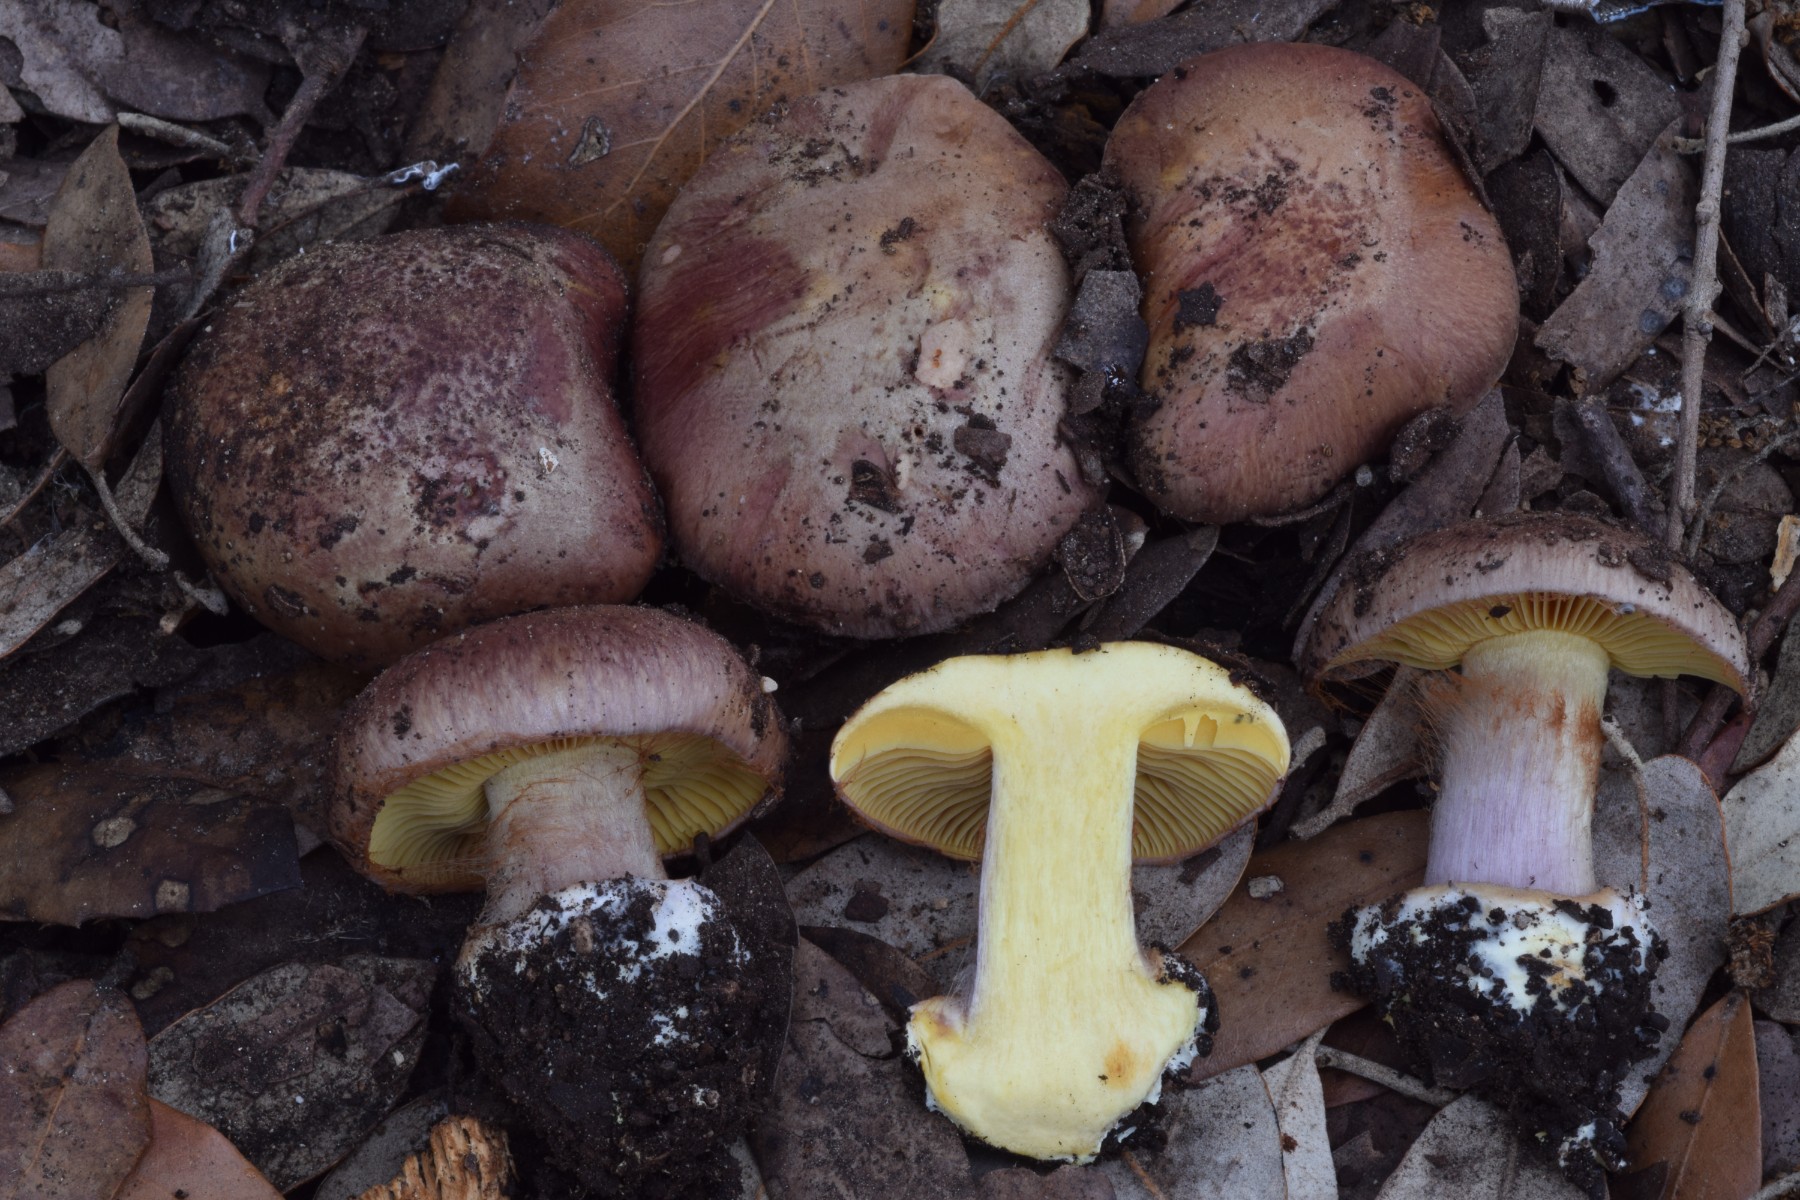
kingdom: Fungi
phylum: Basidiomycota
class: Agaricomycetes
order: Agaricales
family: Cortinariaceae
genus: Calonarius
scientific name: Calonarius splendificus
